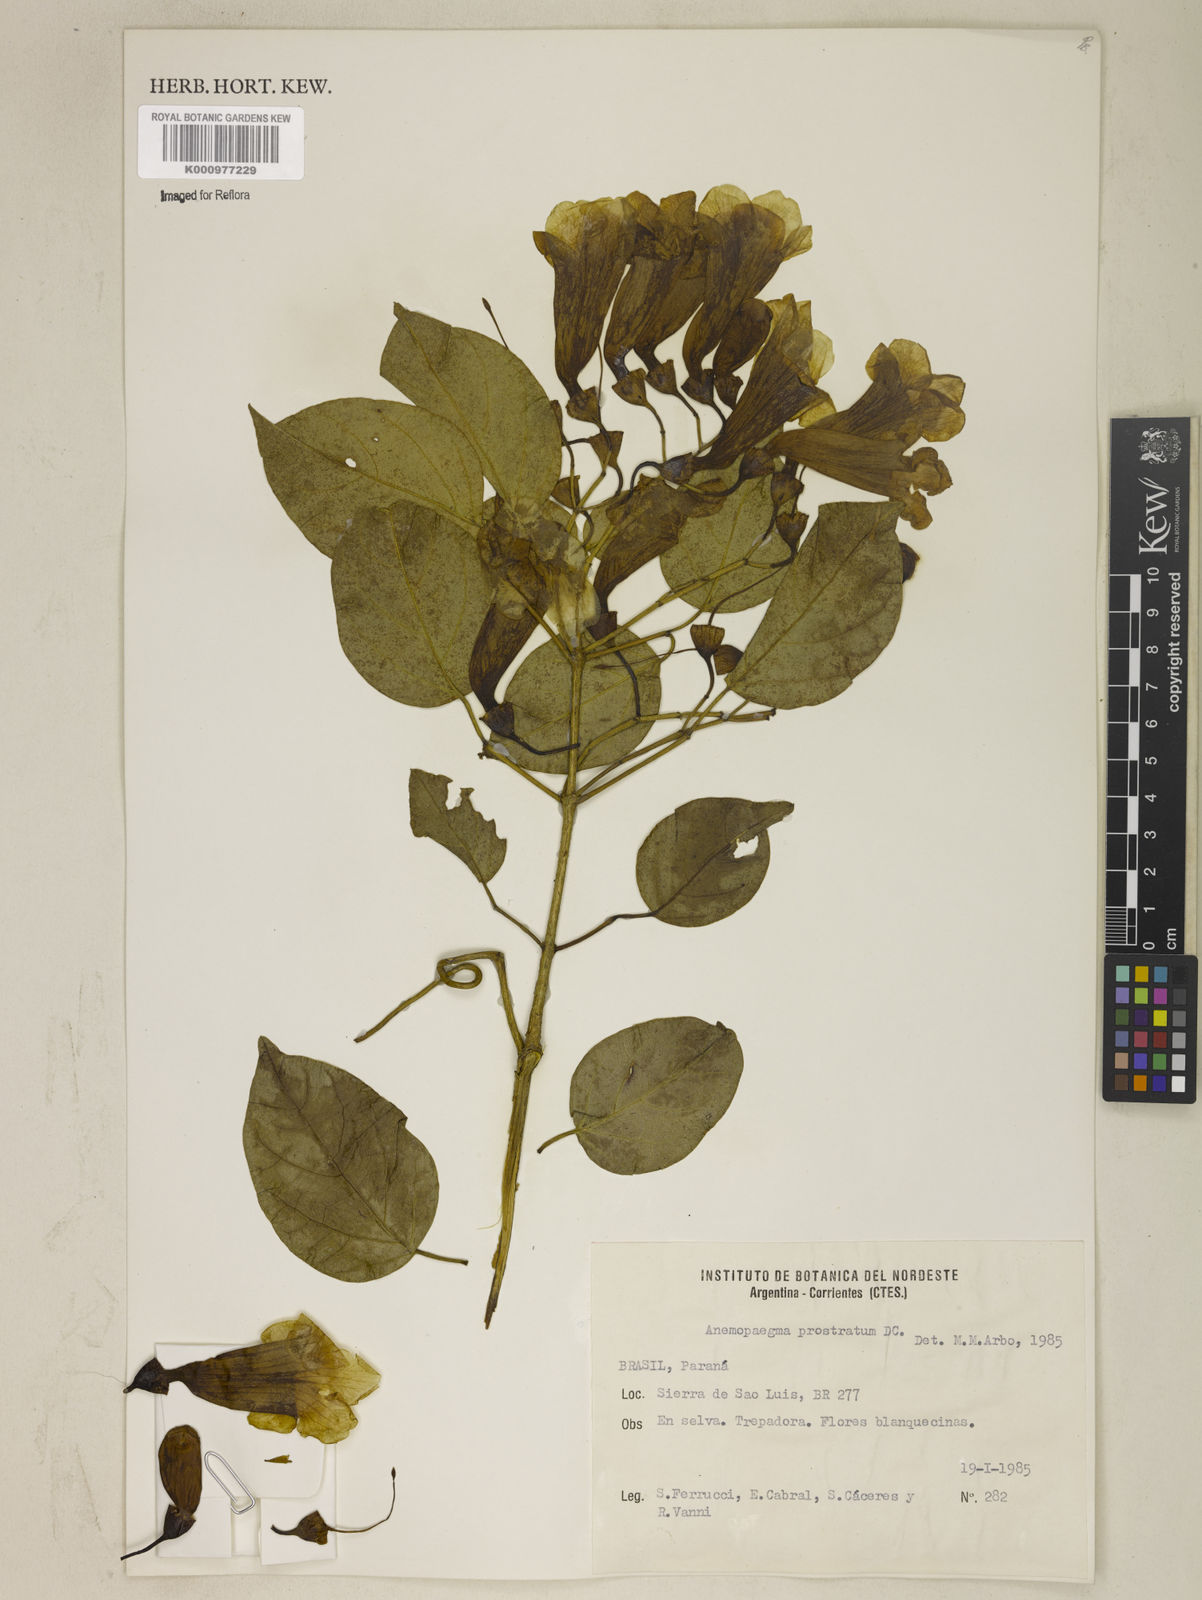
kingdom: Plantae
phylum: Tracheophyta
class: Magnoliopsida
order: Lamiales
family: Bignoniaceae
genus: Anemopaegma
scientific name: Anemopaegma
